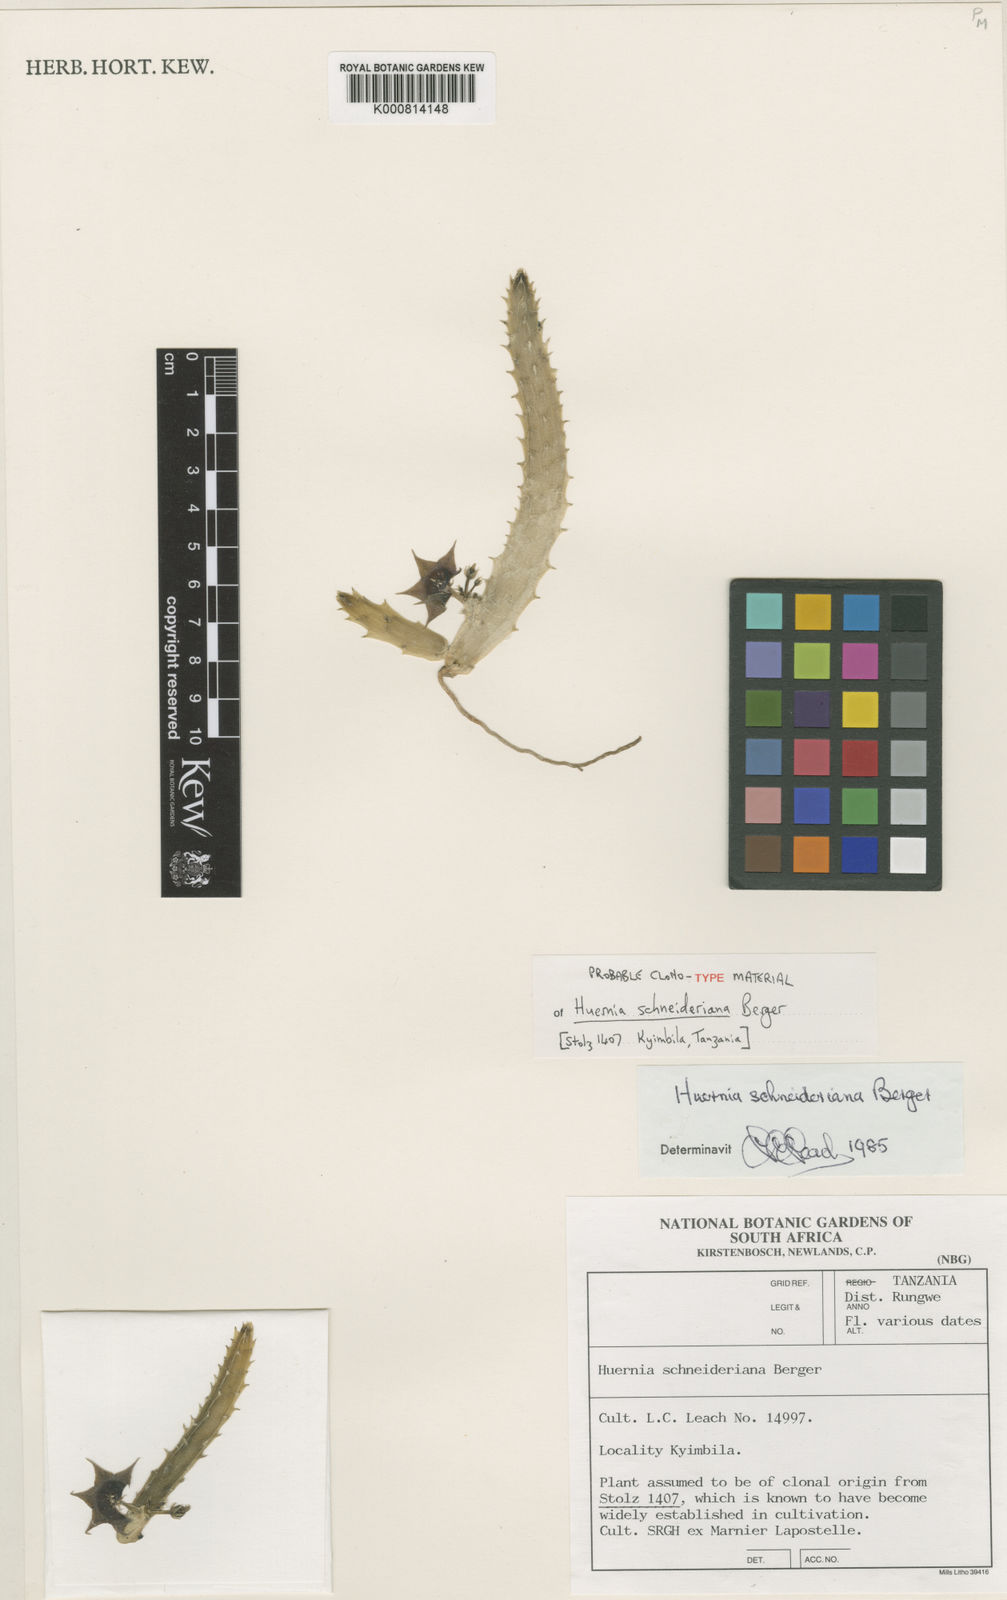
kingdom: Plantae
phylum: Tracheophyta
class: Magnoliopsida
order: Gentianales
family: Apocynaceae
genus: Huernia
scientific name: Huernia schneideriana
